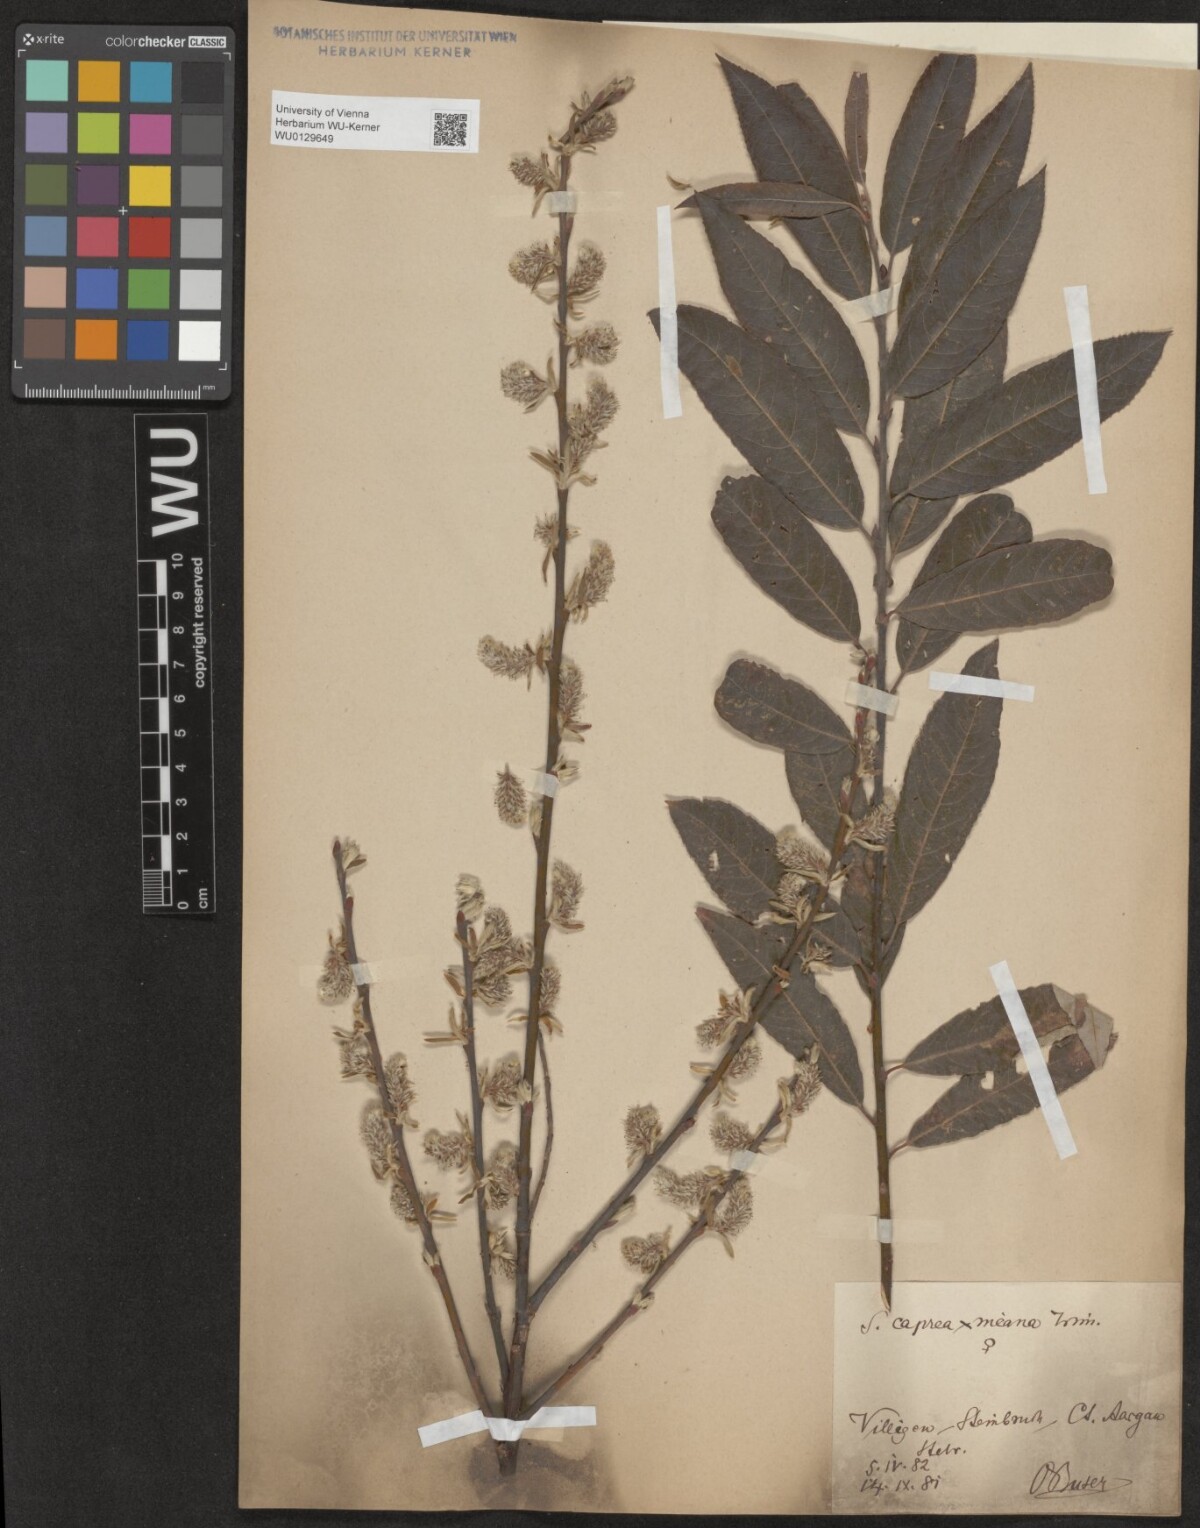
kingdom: Plantae
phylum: Tracheophyta
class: Magnoliopsida
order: Malpighiales
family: Salicaceae
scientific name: Salicaceae
